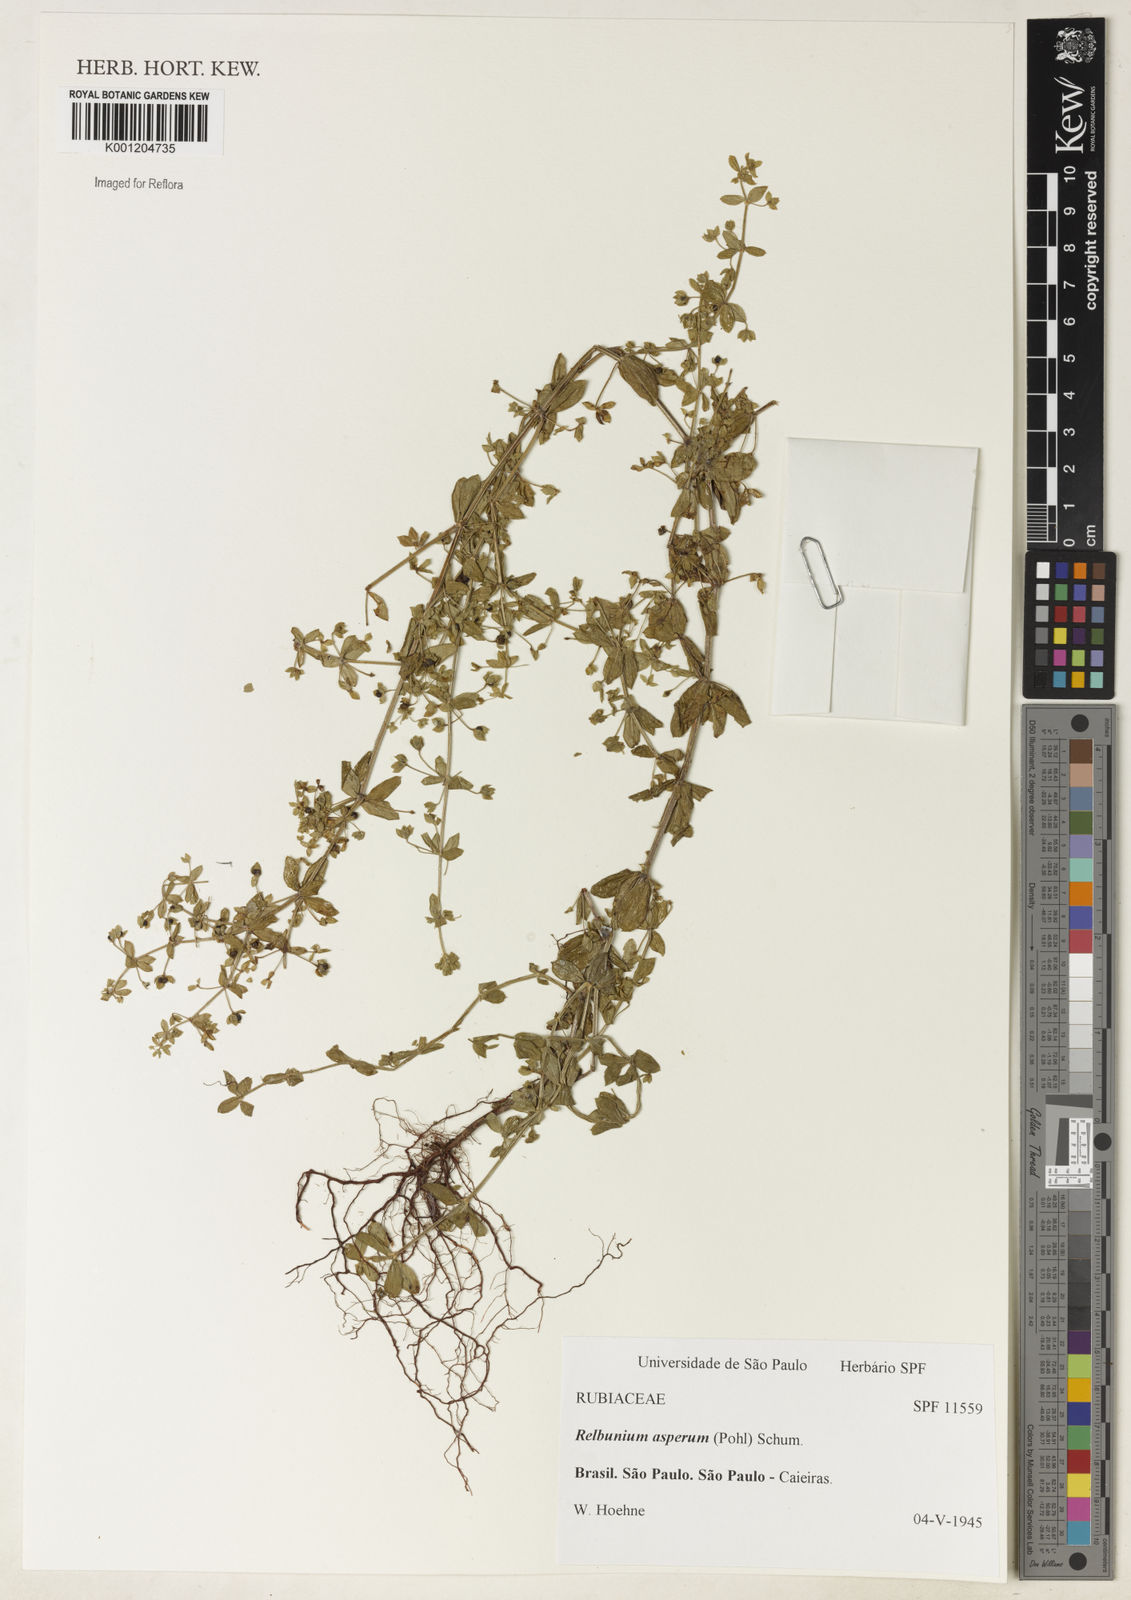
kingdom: Plantae
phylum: Tracheophyta
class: Magnoliopsida
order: Gentianales
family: Rubiaceae
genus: Galium
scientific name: Galium noxium
